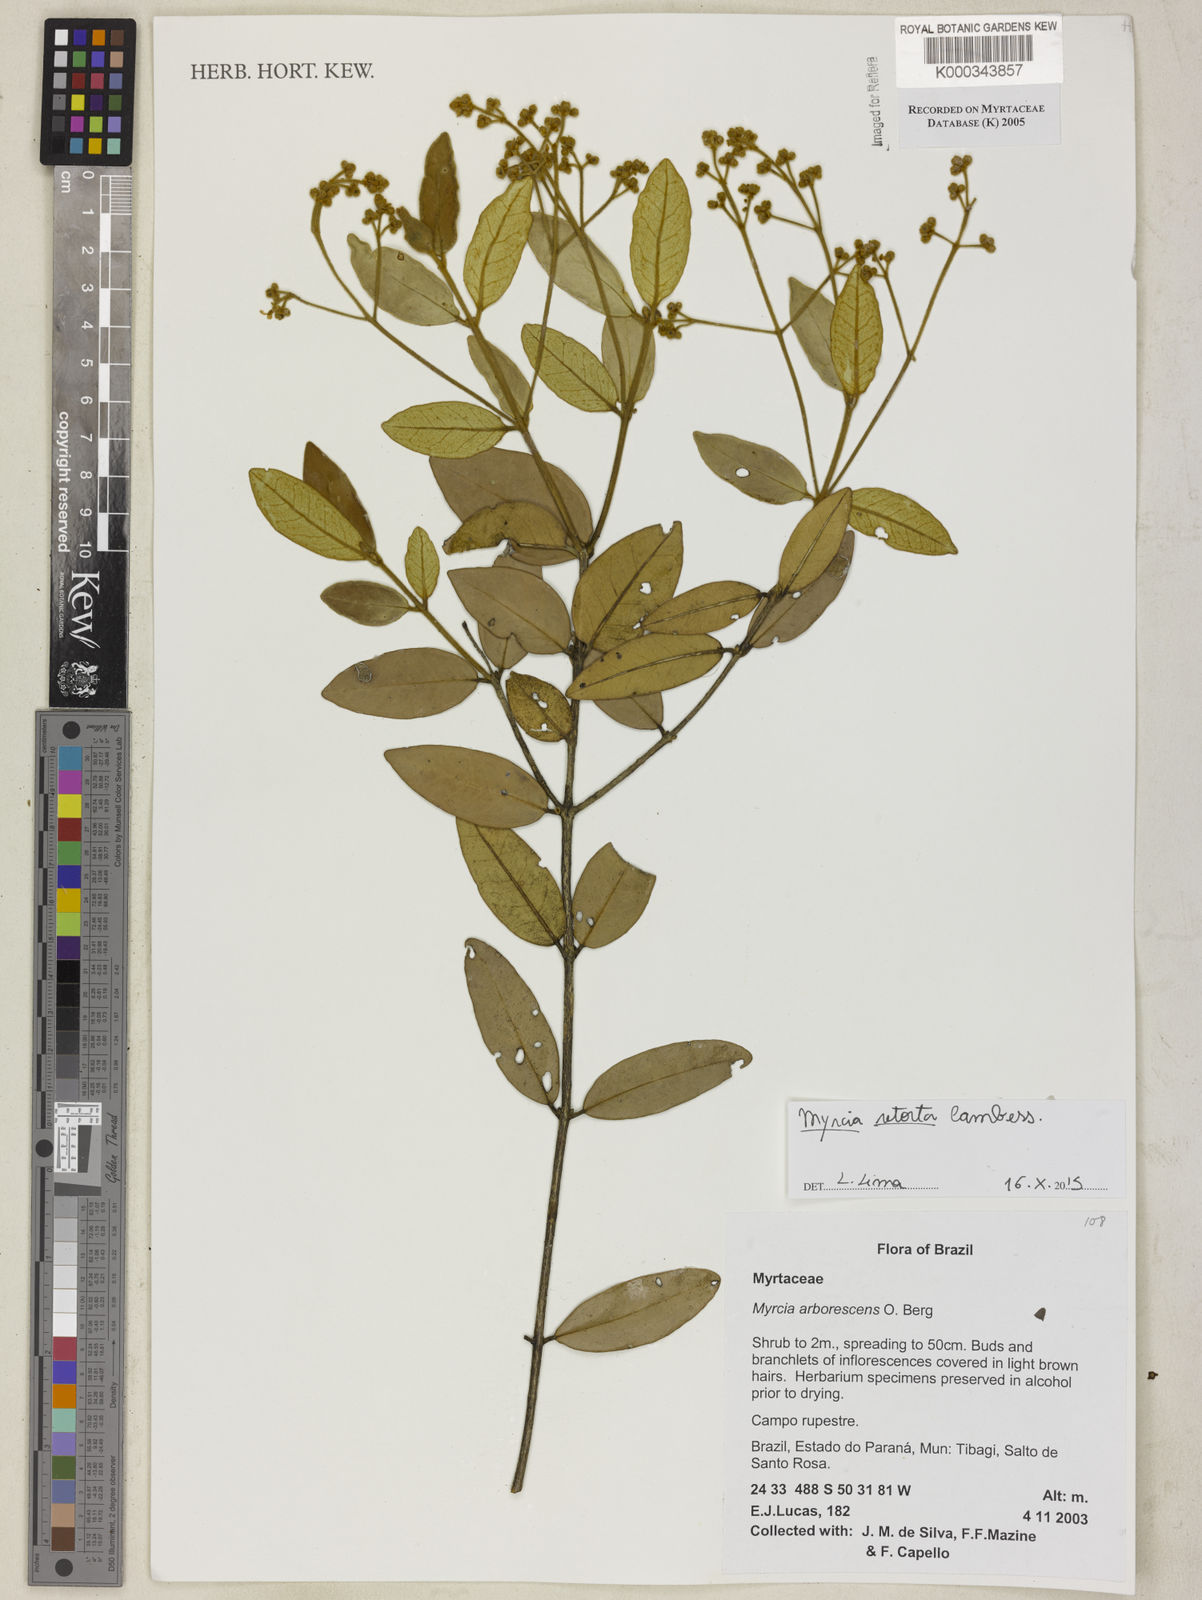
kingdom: Plantae
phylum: Tracheophyta
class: Magnoliopsida
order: Myrtales
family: Myrtaceae
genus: Myrcia
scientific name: Myrcia retorta
